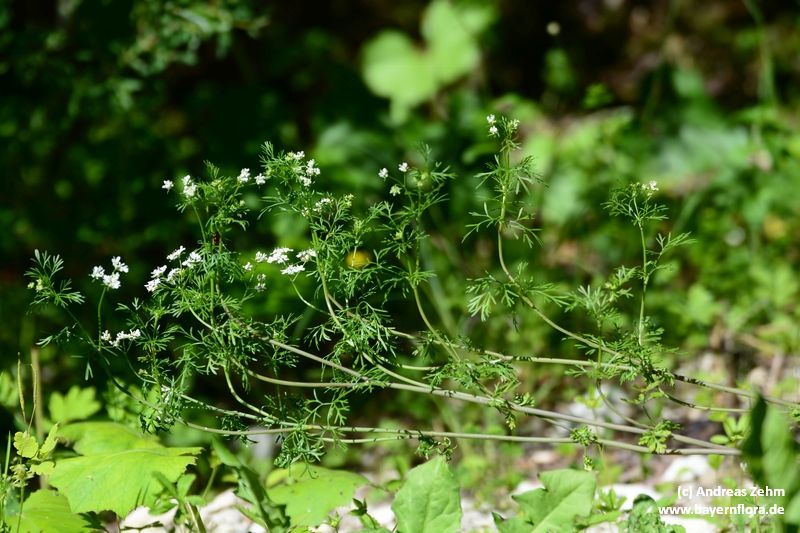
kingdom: Plantae
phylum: Tracheophyta
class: Magnoliopsida
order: Apiales
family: Apiaceae
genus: Coriandrum
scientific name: Coriandrum sativum
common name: Coriander
